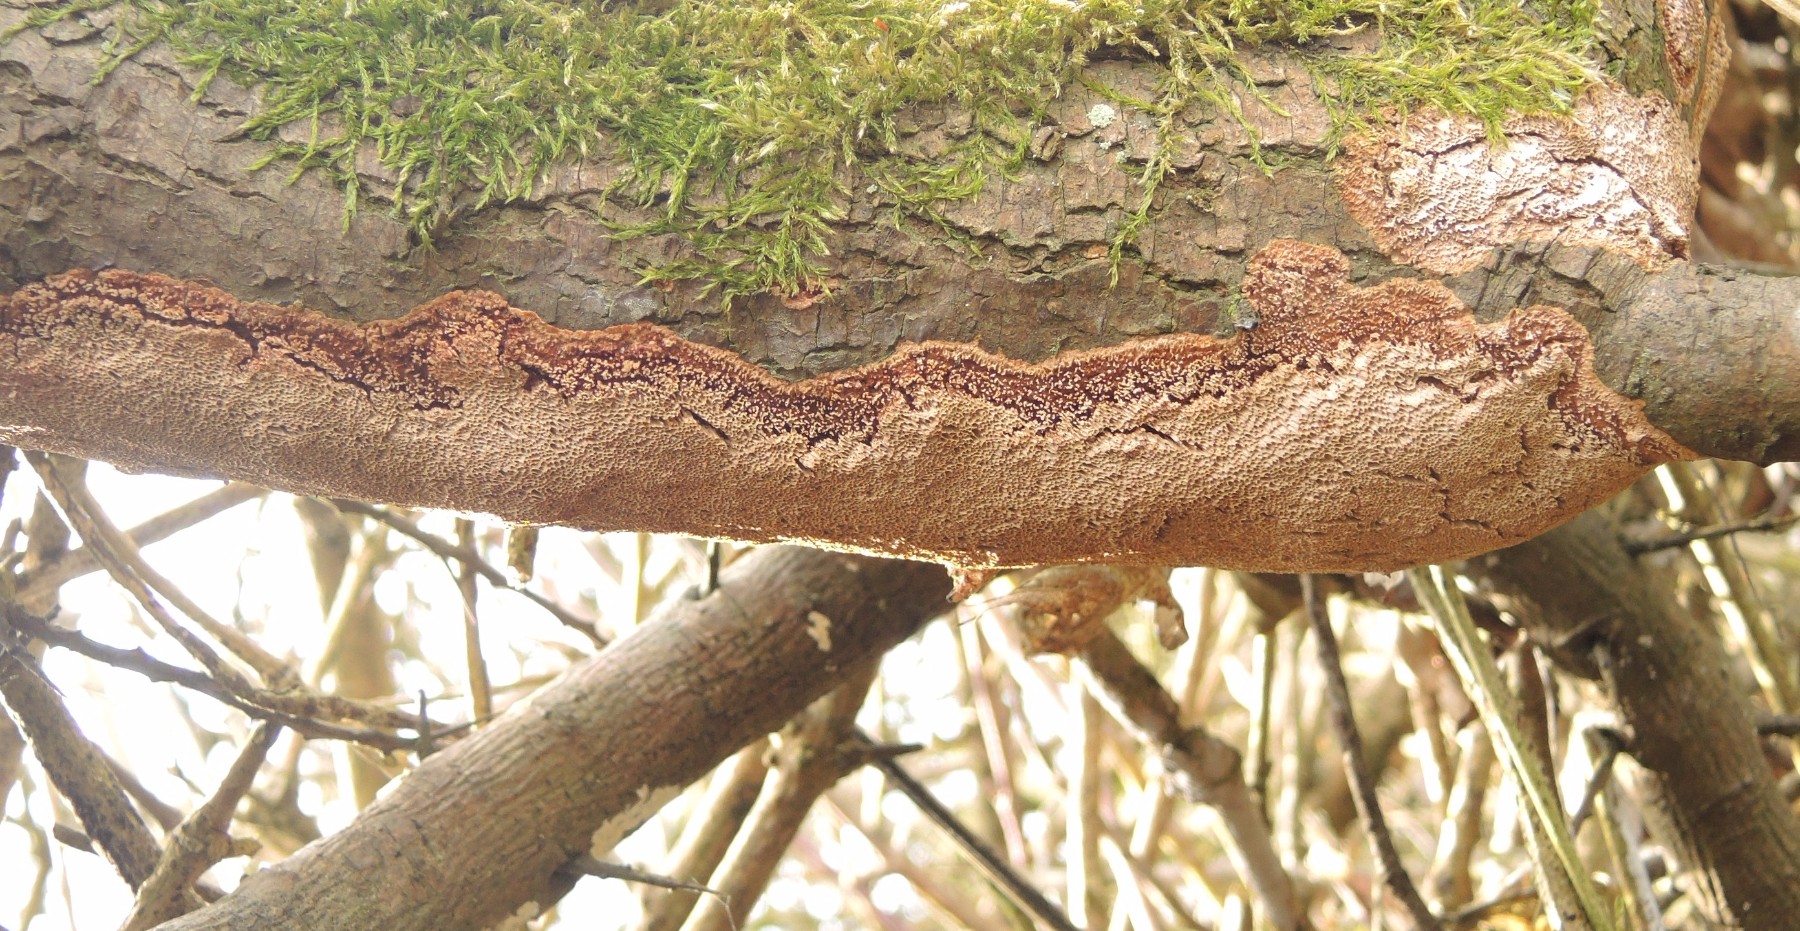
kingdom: Fungi
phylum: Basidiomycota
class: Agaricomycetes
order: Hymenochaetales
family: Hymenochaetaceae
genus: Fuscoporia
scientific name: Fuscoporia contigua
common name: grov ildporesvamp
